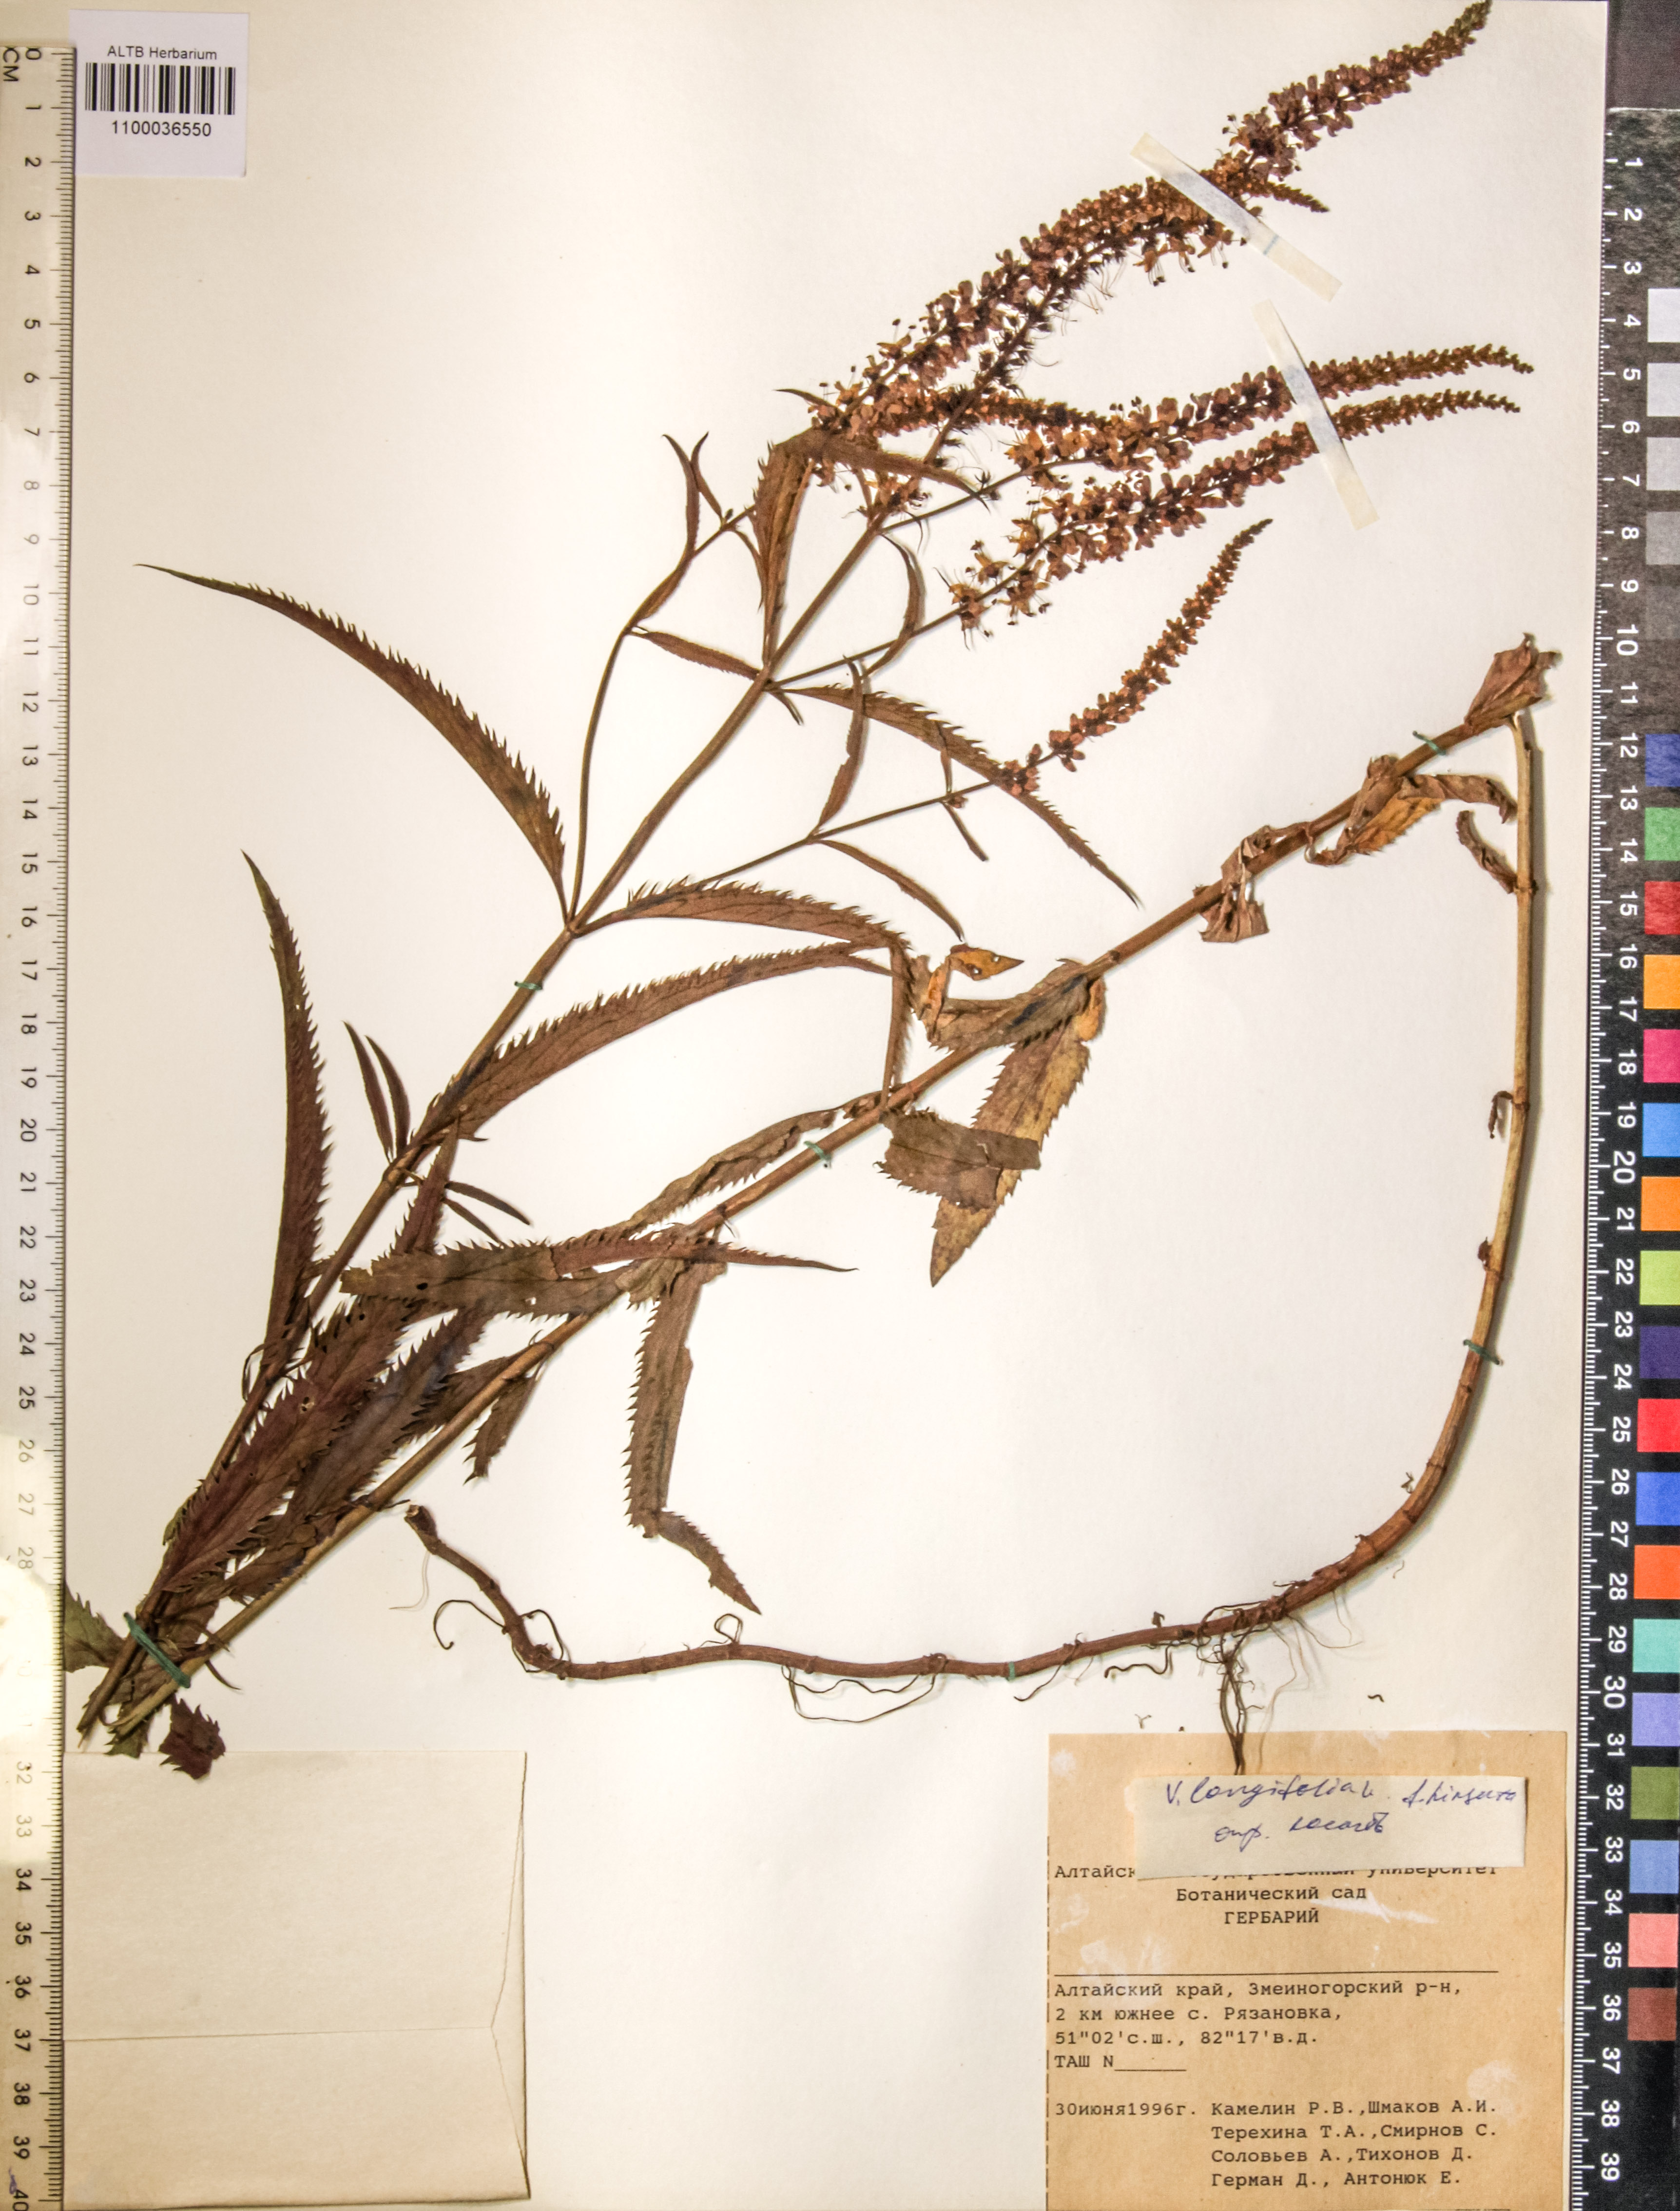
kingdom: Plantae
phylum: Tracheophyta
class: Magnoliopsida
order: Lamiales
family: Plantaginaceae
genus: Veronica
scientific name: Veronica longifolia
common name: Garden speedwell
